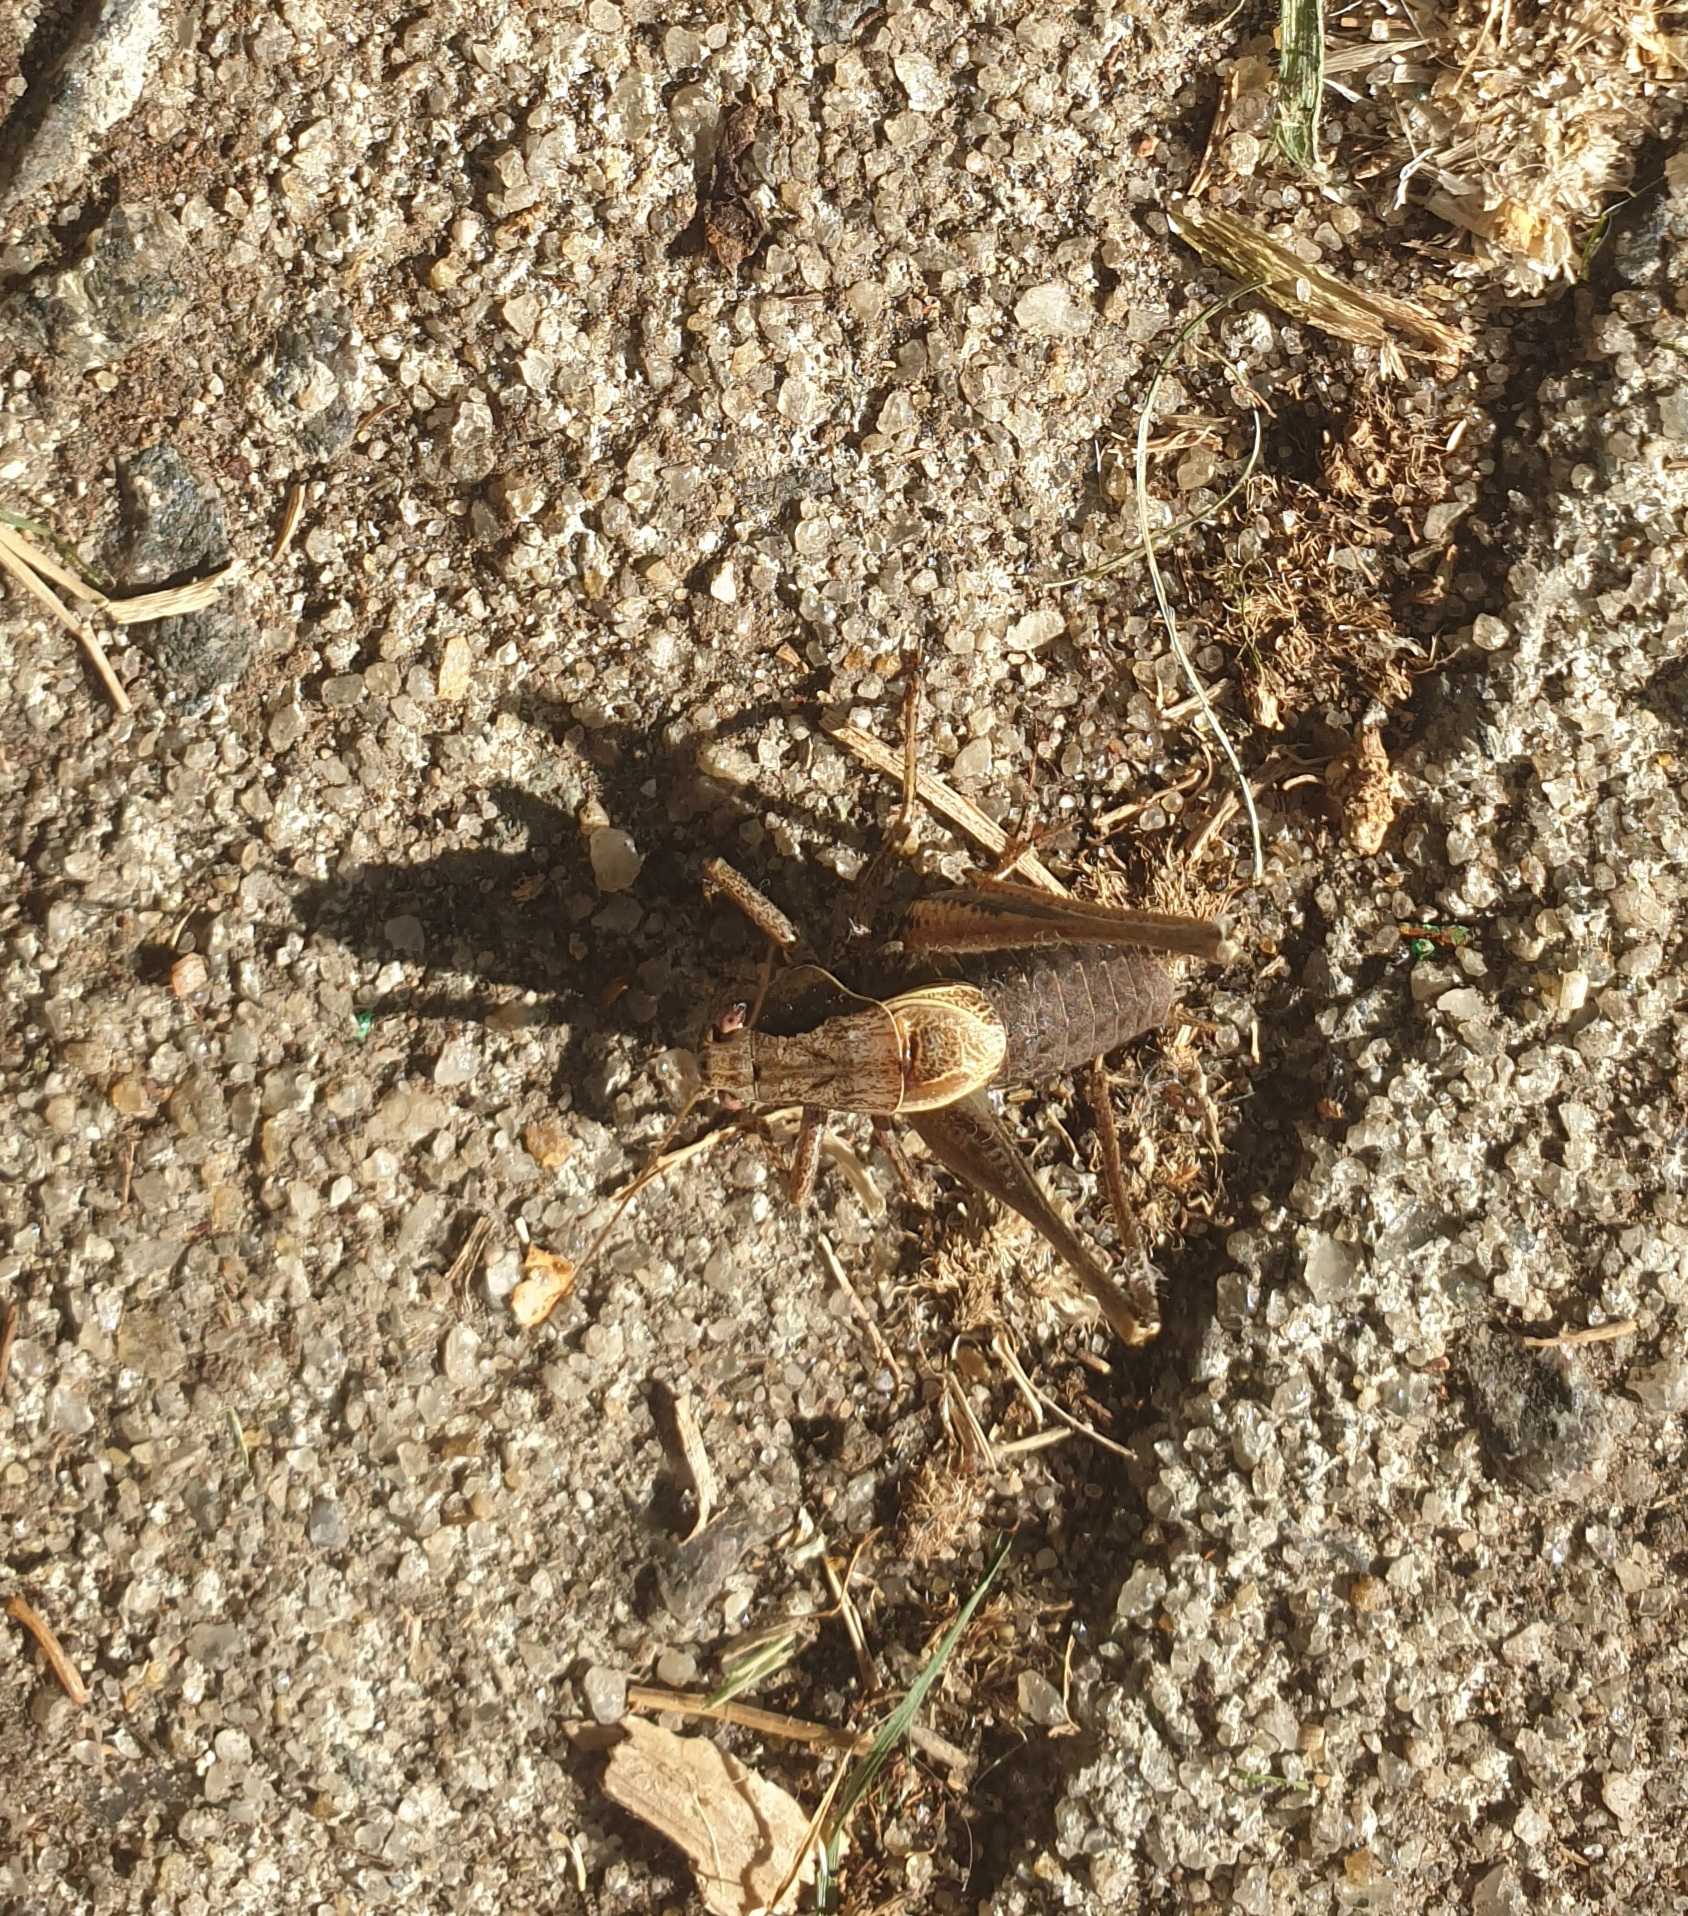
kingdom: Animalia
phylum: Arthropoda
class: Insecta
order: Orthoptera
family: Tettigoniidae
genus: Pholidoptera
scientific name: Pholidoptera griseoaptera
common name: Buskgræshoppe
